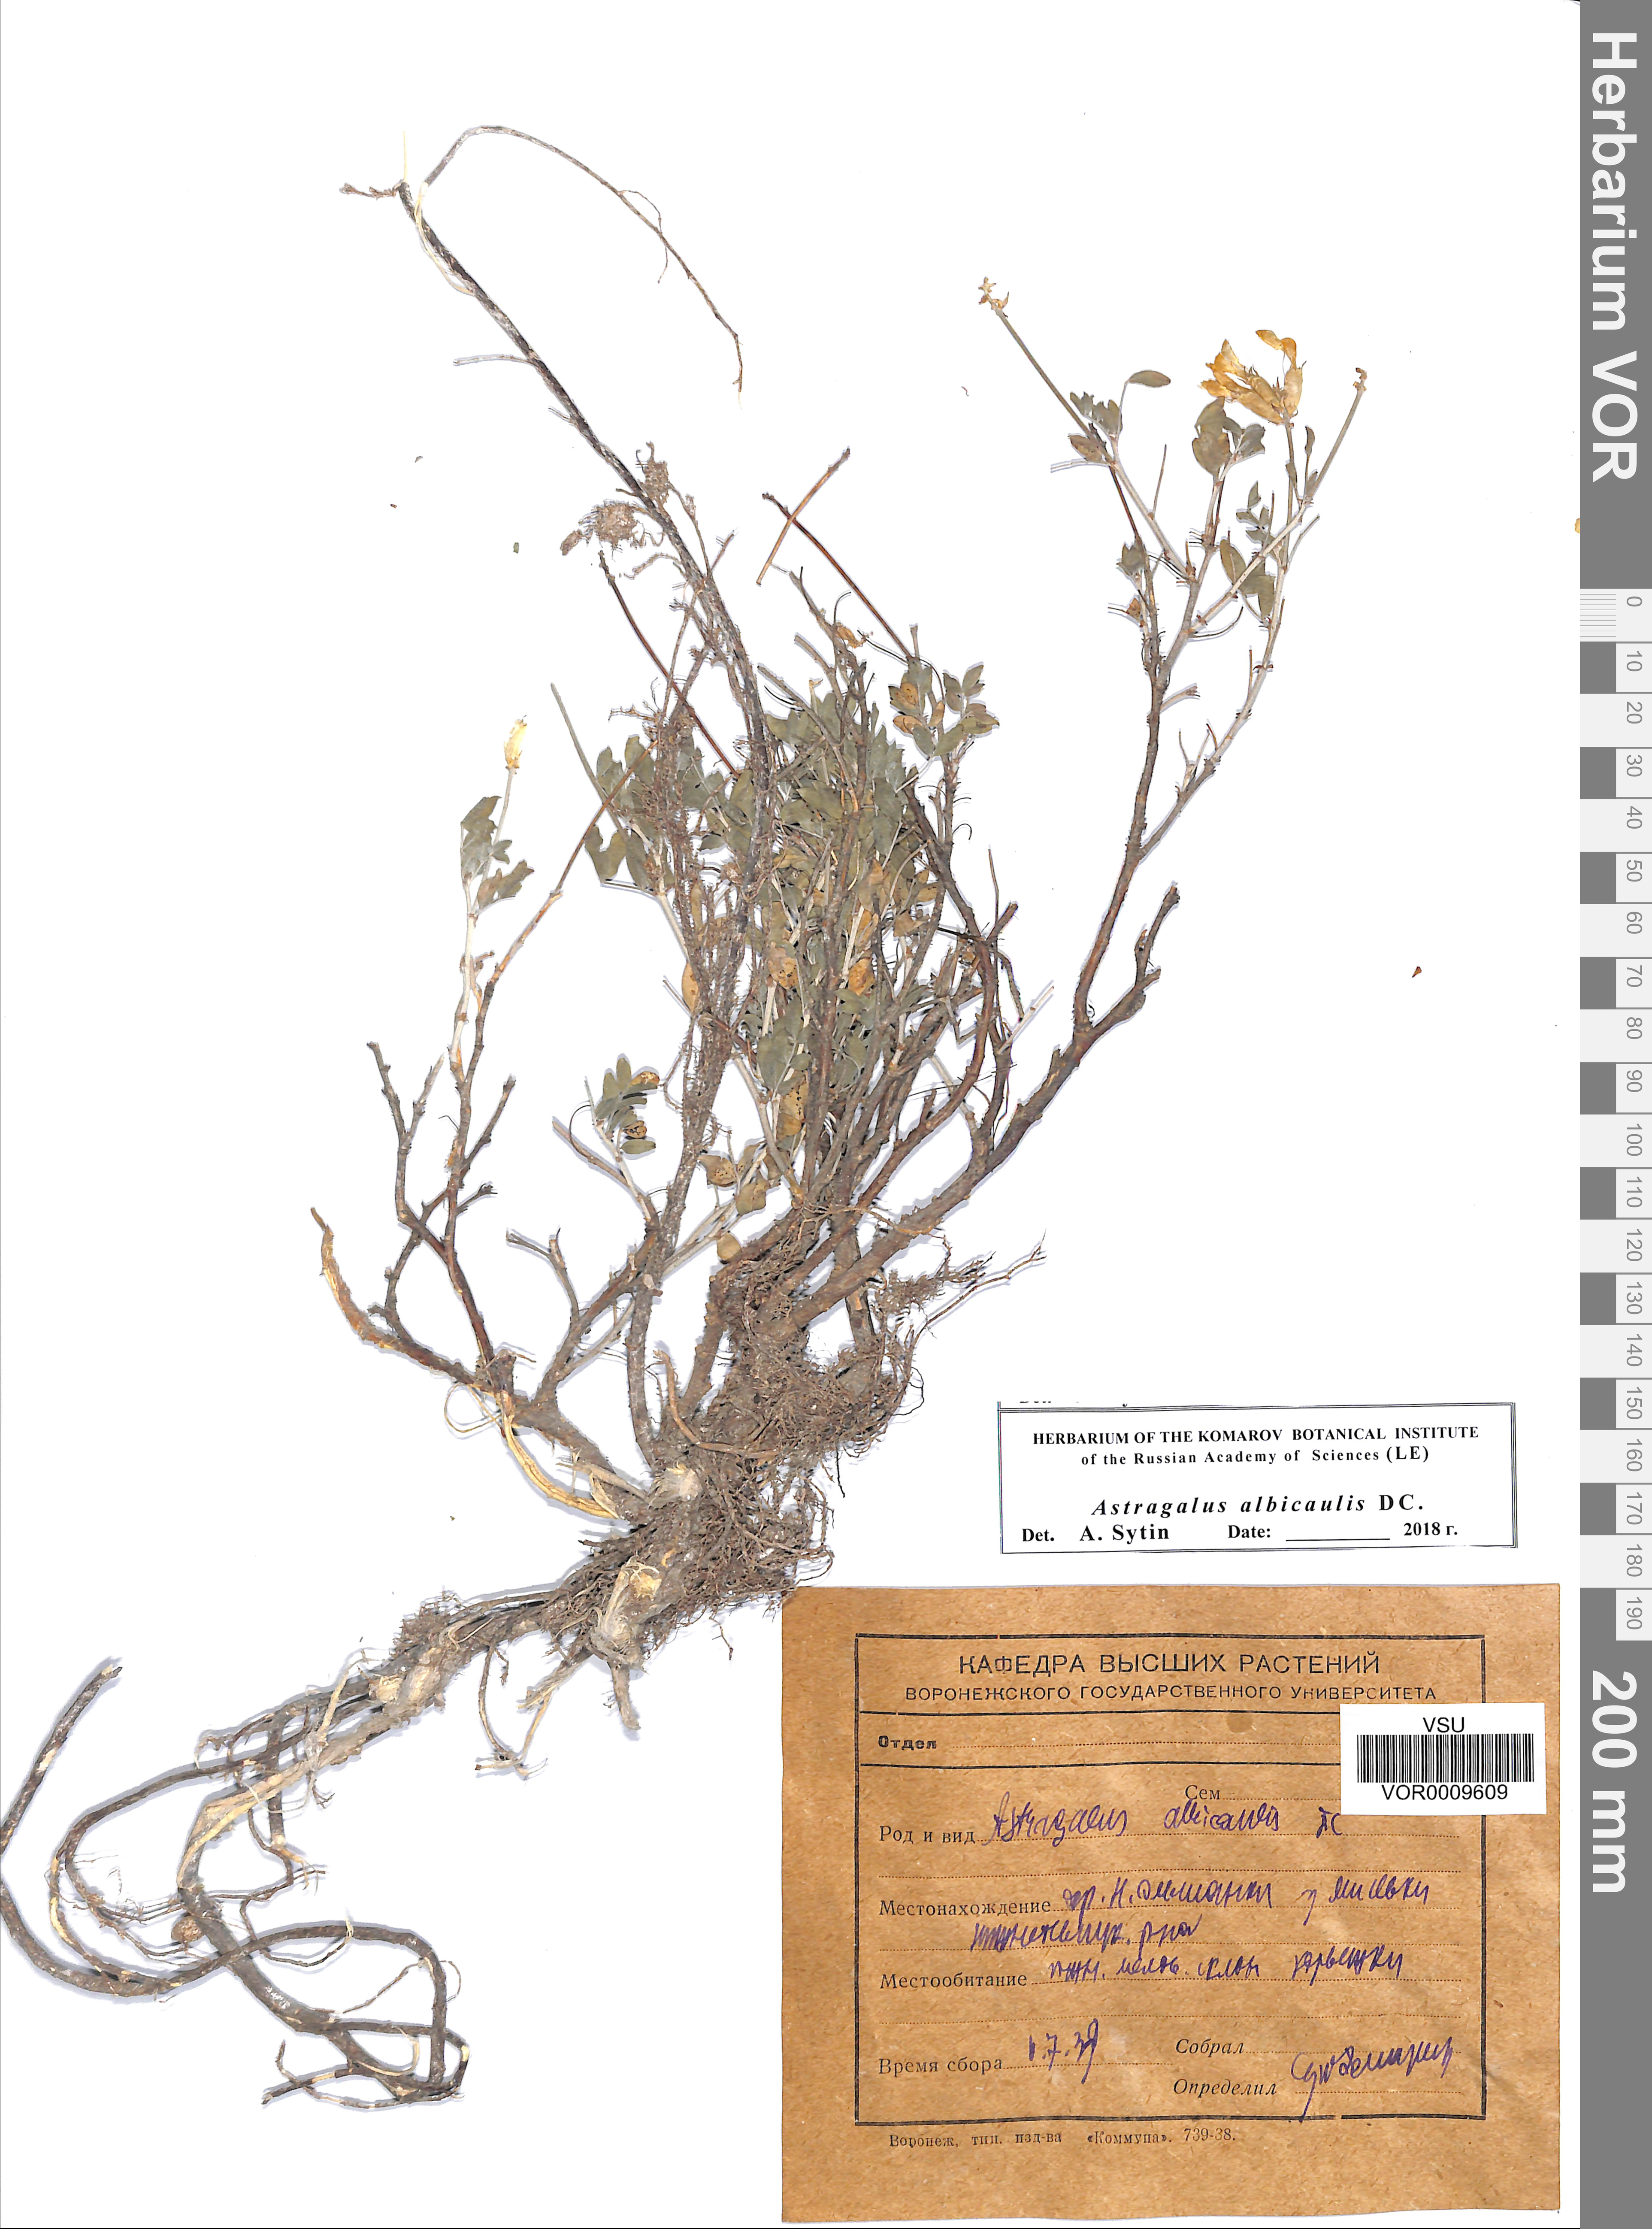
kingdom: Plantae
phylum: Tracheophyta
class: Magnoliopsida
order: Fabales
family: Fabaceae
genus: Astragalus
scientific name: Astragalus albicaulis
